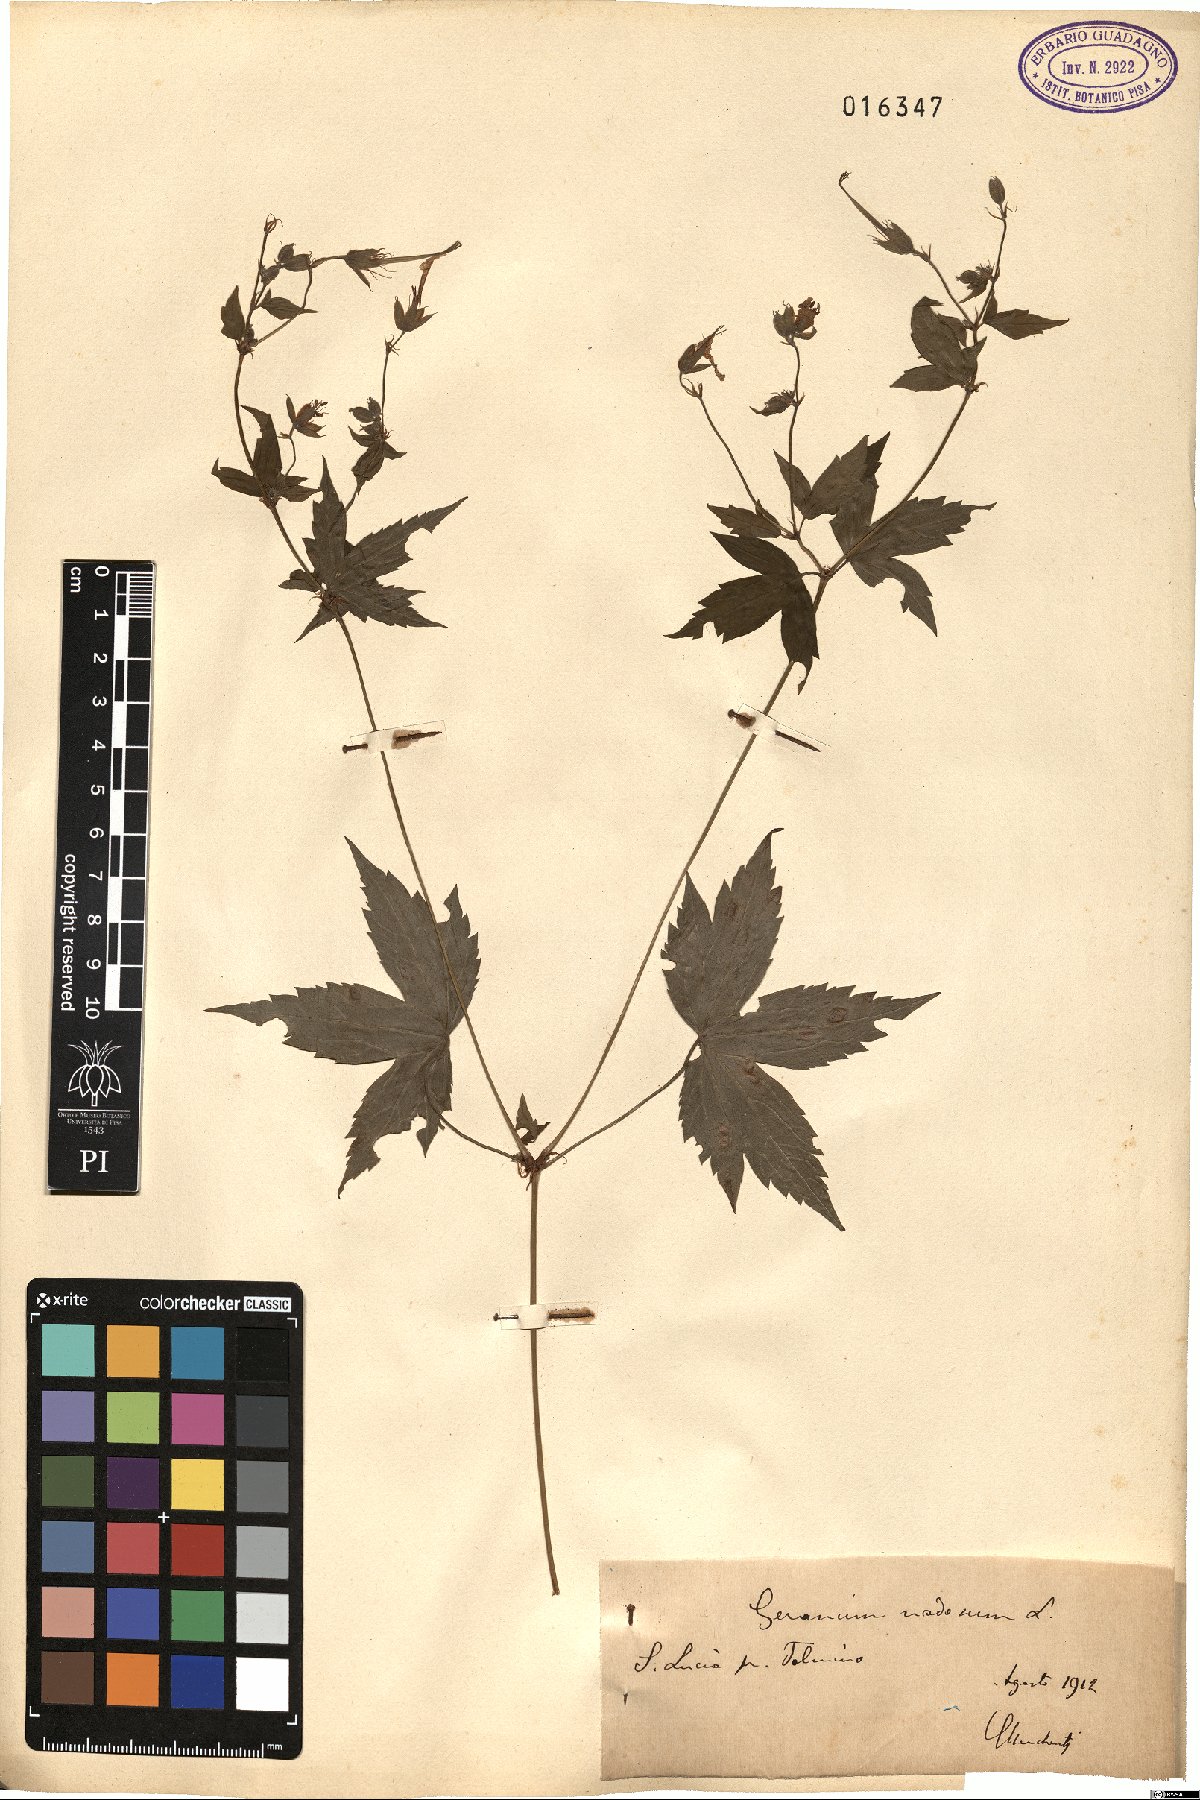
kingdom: Plantae
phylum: Tracheophyta
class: Magnoliopsida
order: Geraniales
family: Geraniaceae
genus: Geranium
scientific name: Geranium nodosum
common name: Knotted crane's-bill
